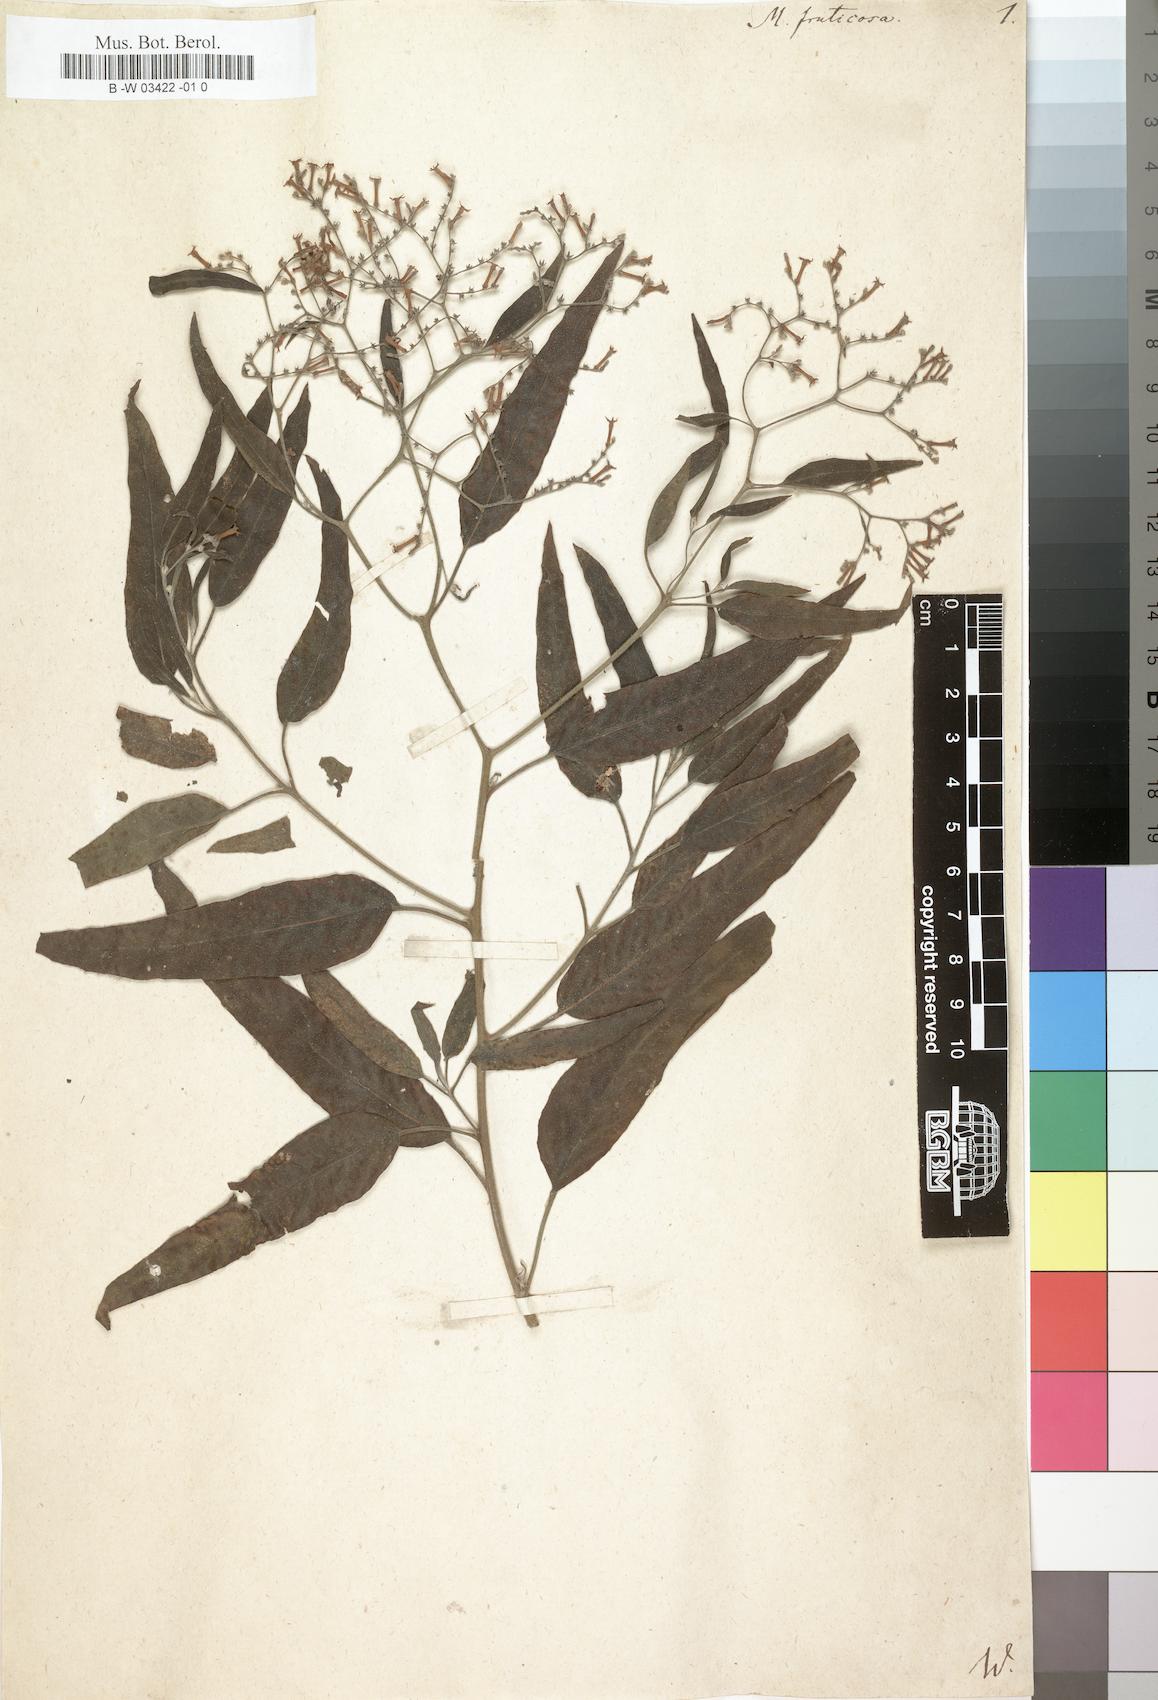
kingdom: Plantae
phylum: Tracheophyta
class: Magnoliopsida
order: Boraginales
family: Heliotropiaceae
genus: Heliotropium
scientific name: Heliotropium messerschmidioides
